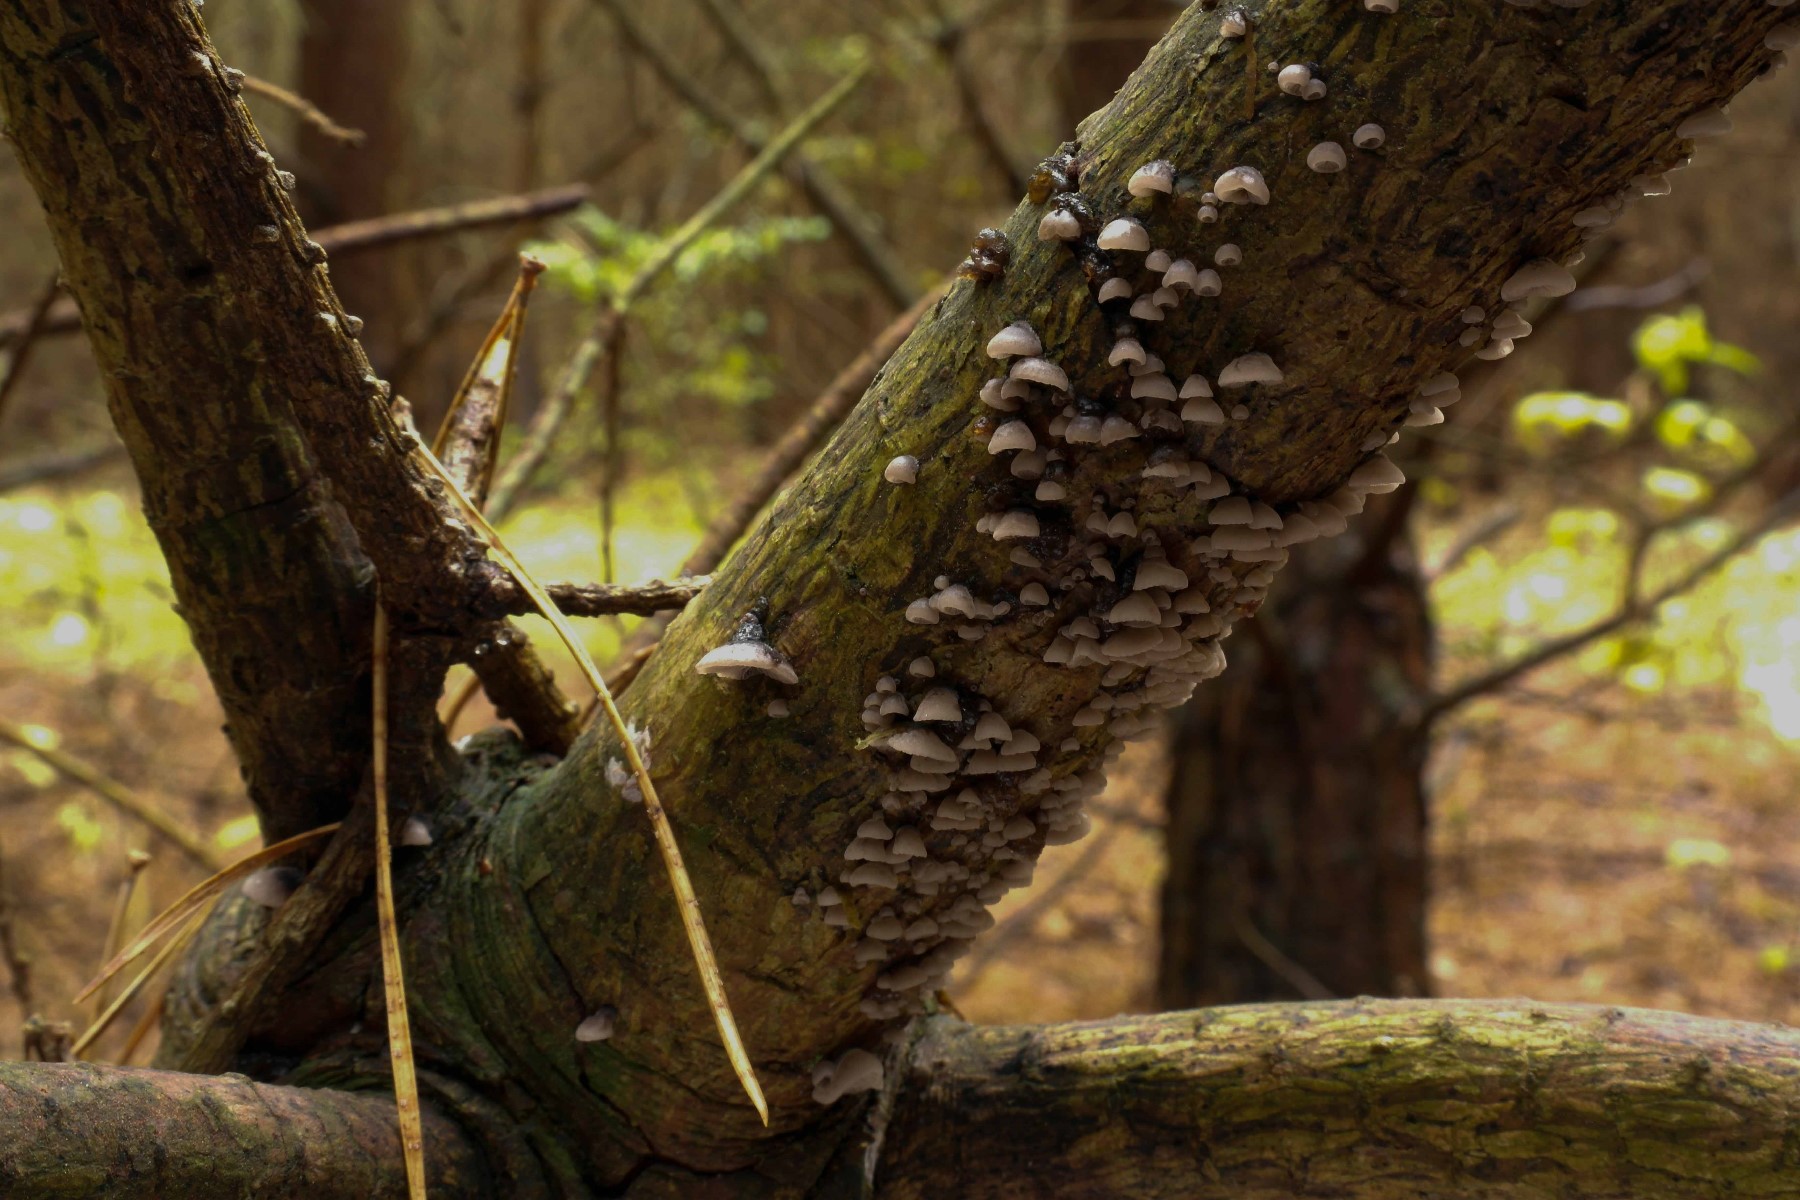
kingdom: Fungi
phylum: Basidiomycota
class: Agaricomycetes
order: Agaricales
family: Pleurotaceae
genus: Resupinatus
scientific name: Resupinatus trichotis
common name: mørkfiltet barkhat
